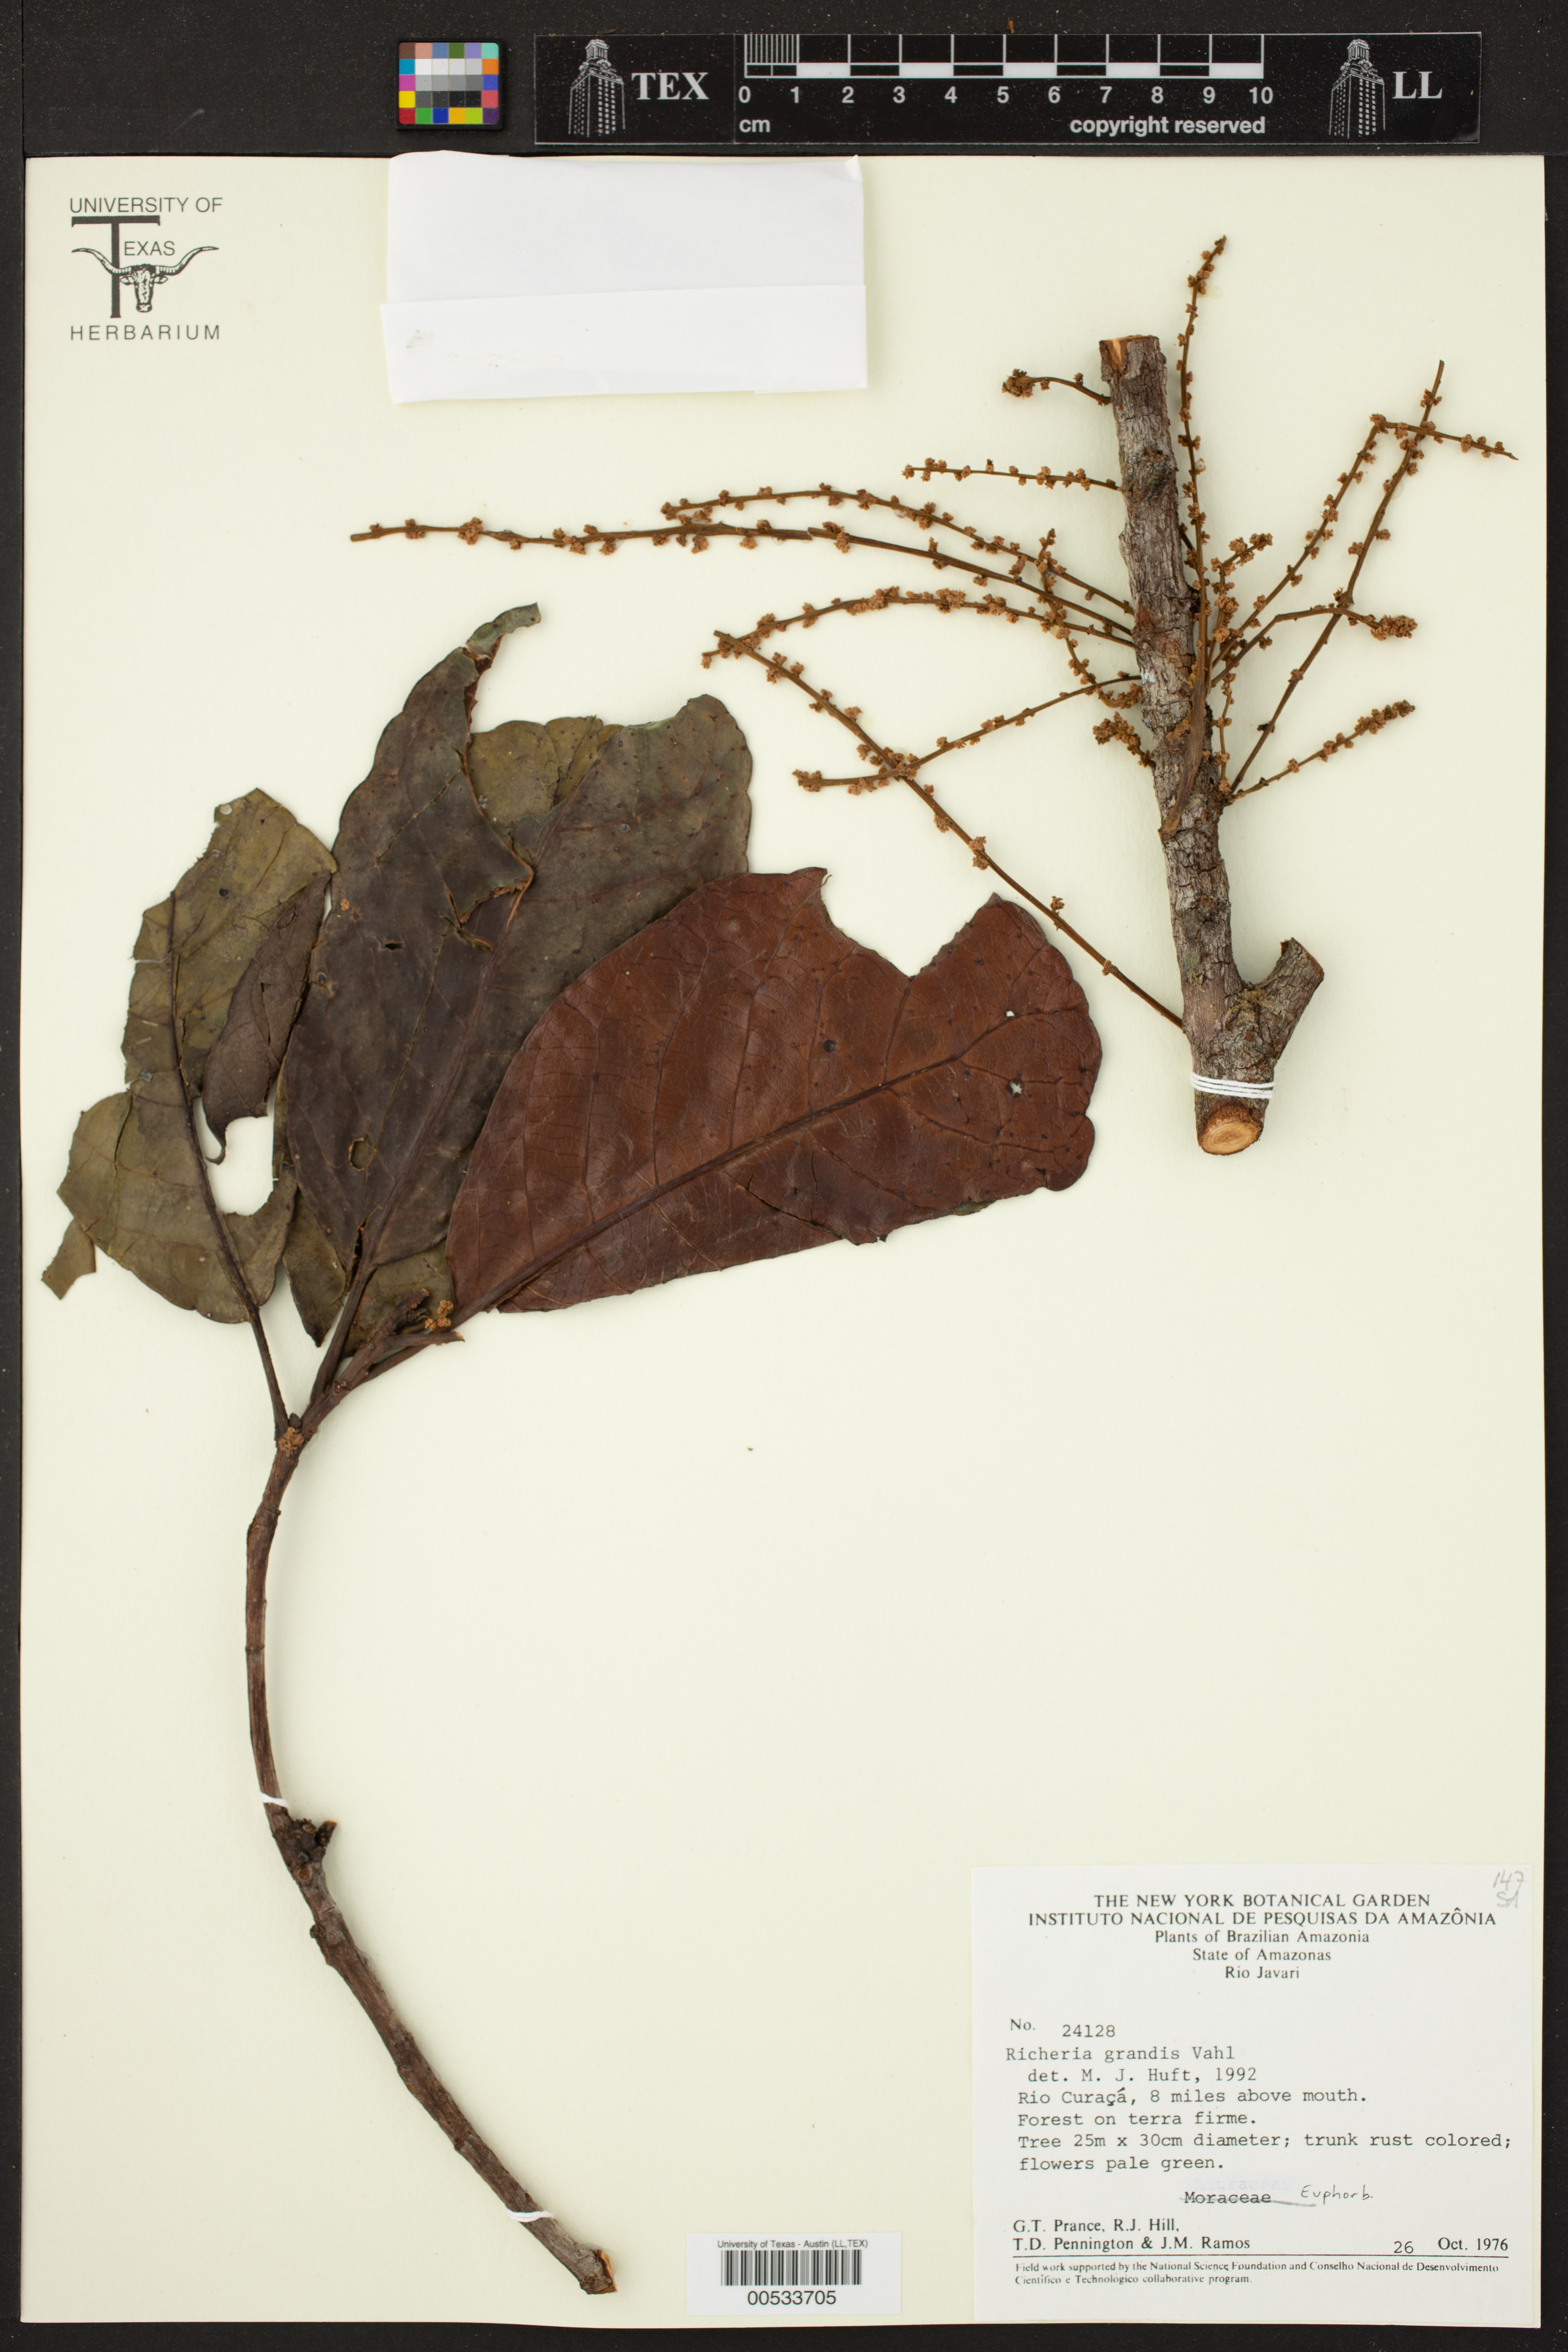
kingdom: Plantae
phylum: Tracheophyta
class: Magnoliopsida
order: Malpighiales
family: Phyllanthaceae
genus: Richeria
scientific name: Richeria grandis
